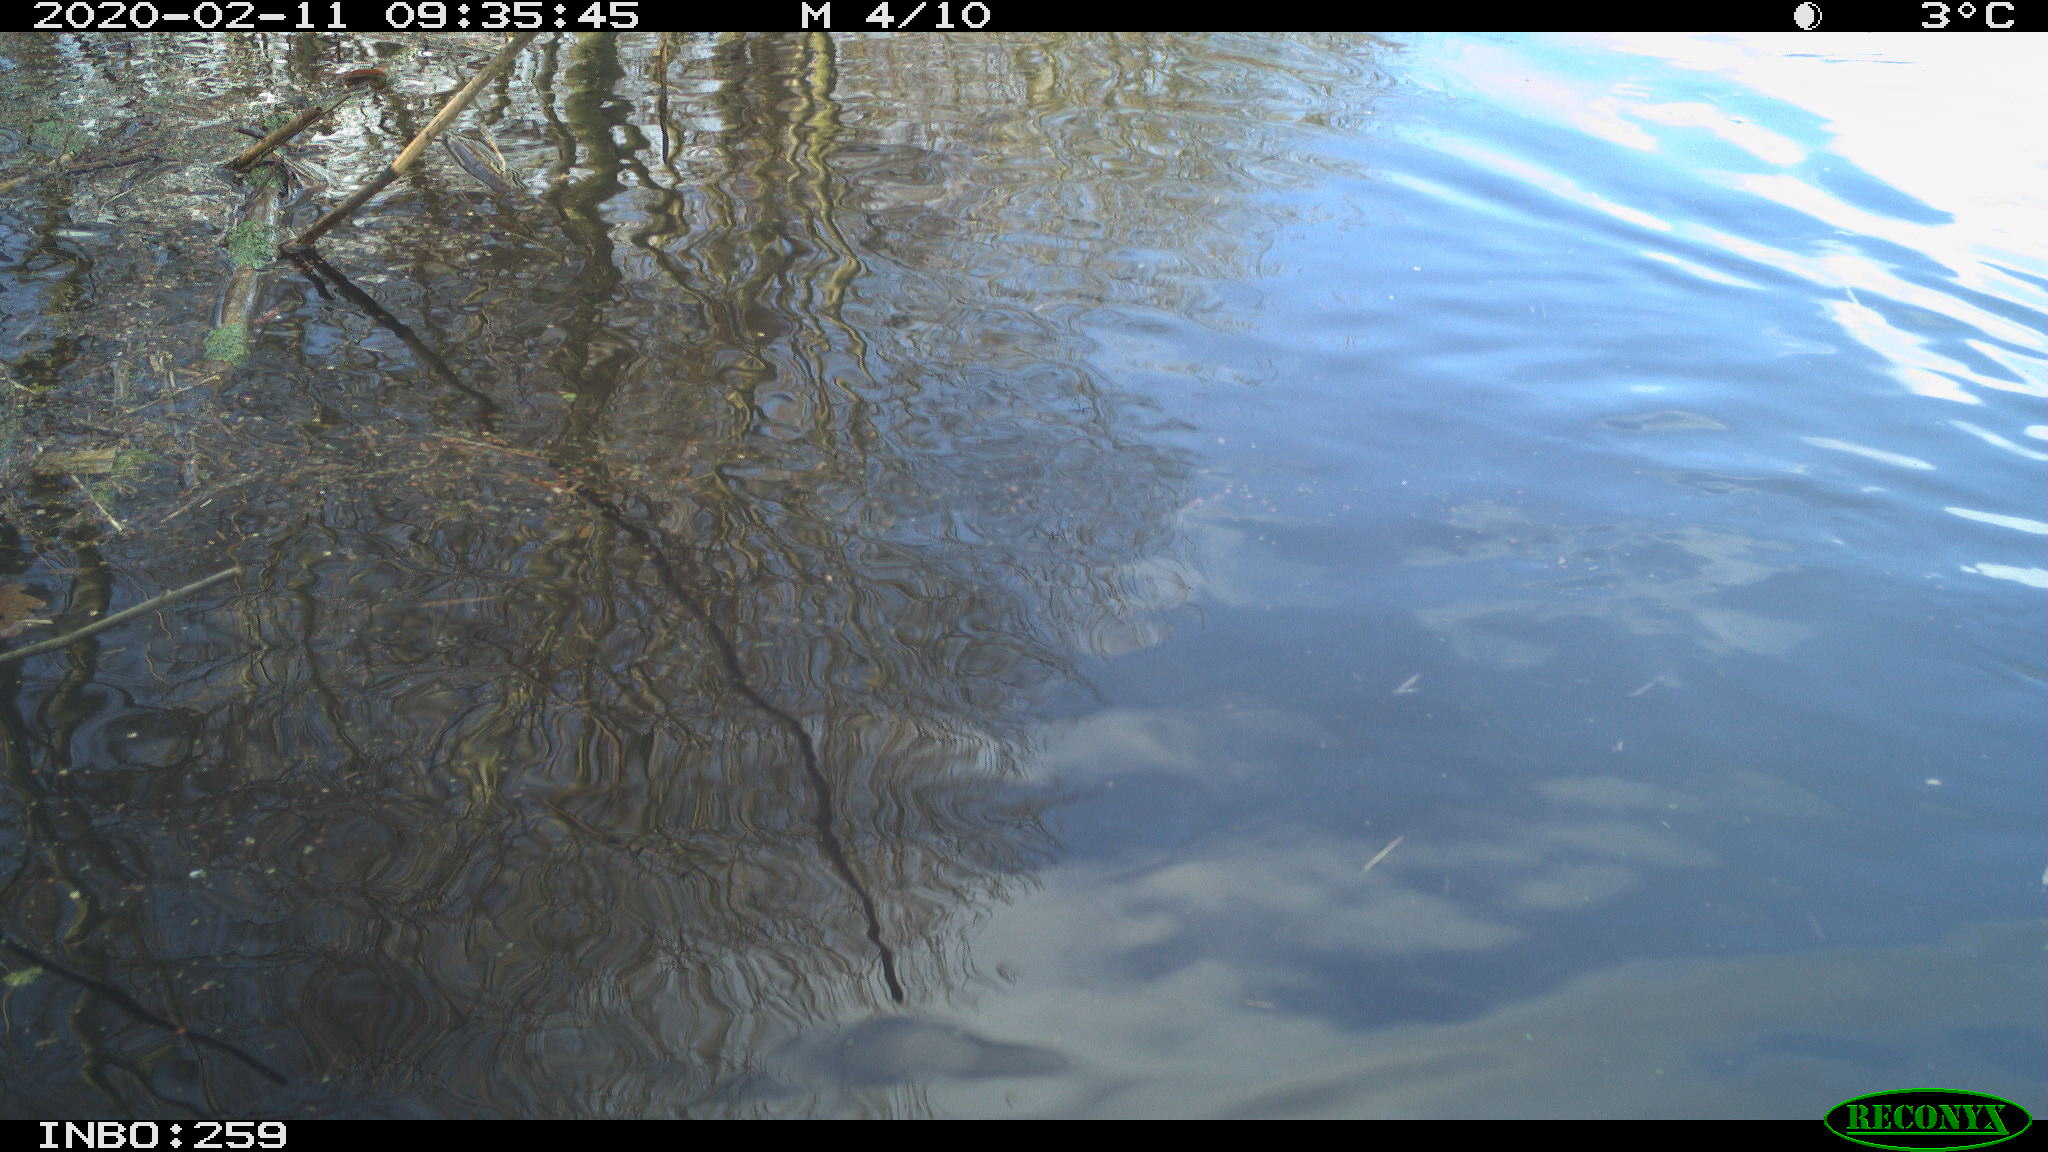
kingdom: Animalia
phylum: Chordata
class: Aves
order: Anseriformes
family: Anatidae
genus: Anas
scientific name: Anas platyrhynchos
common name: Mallard
